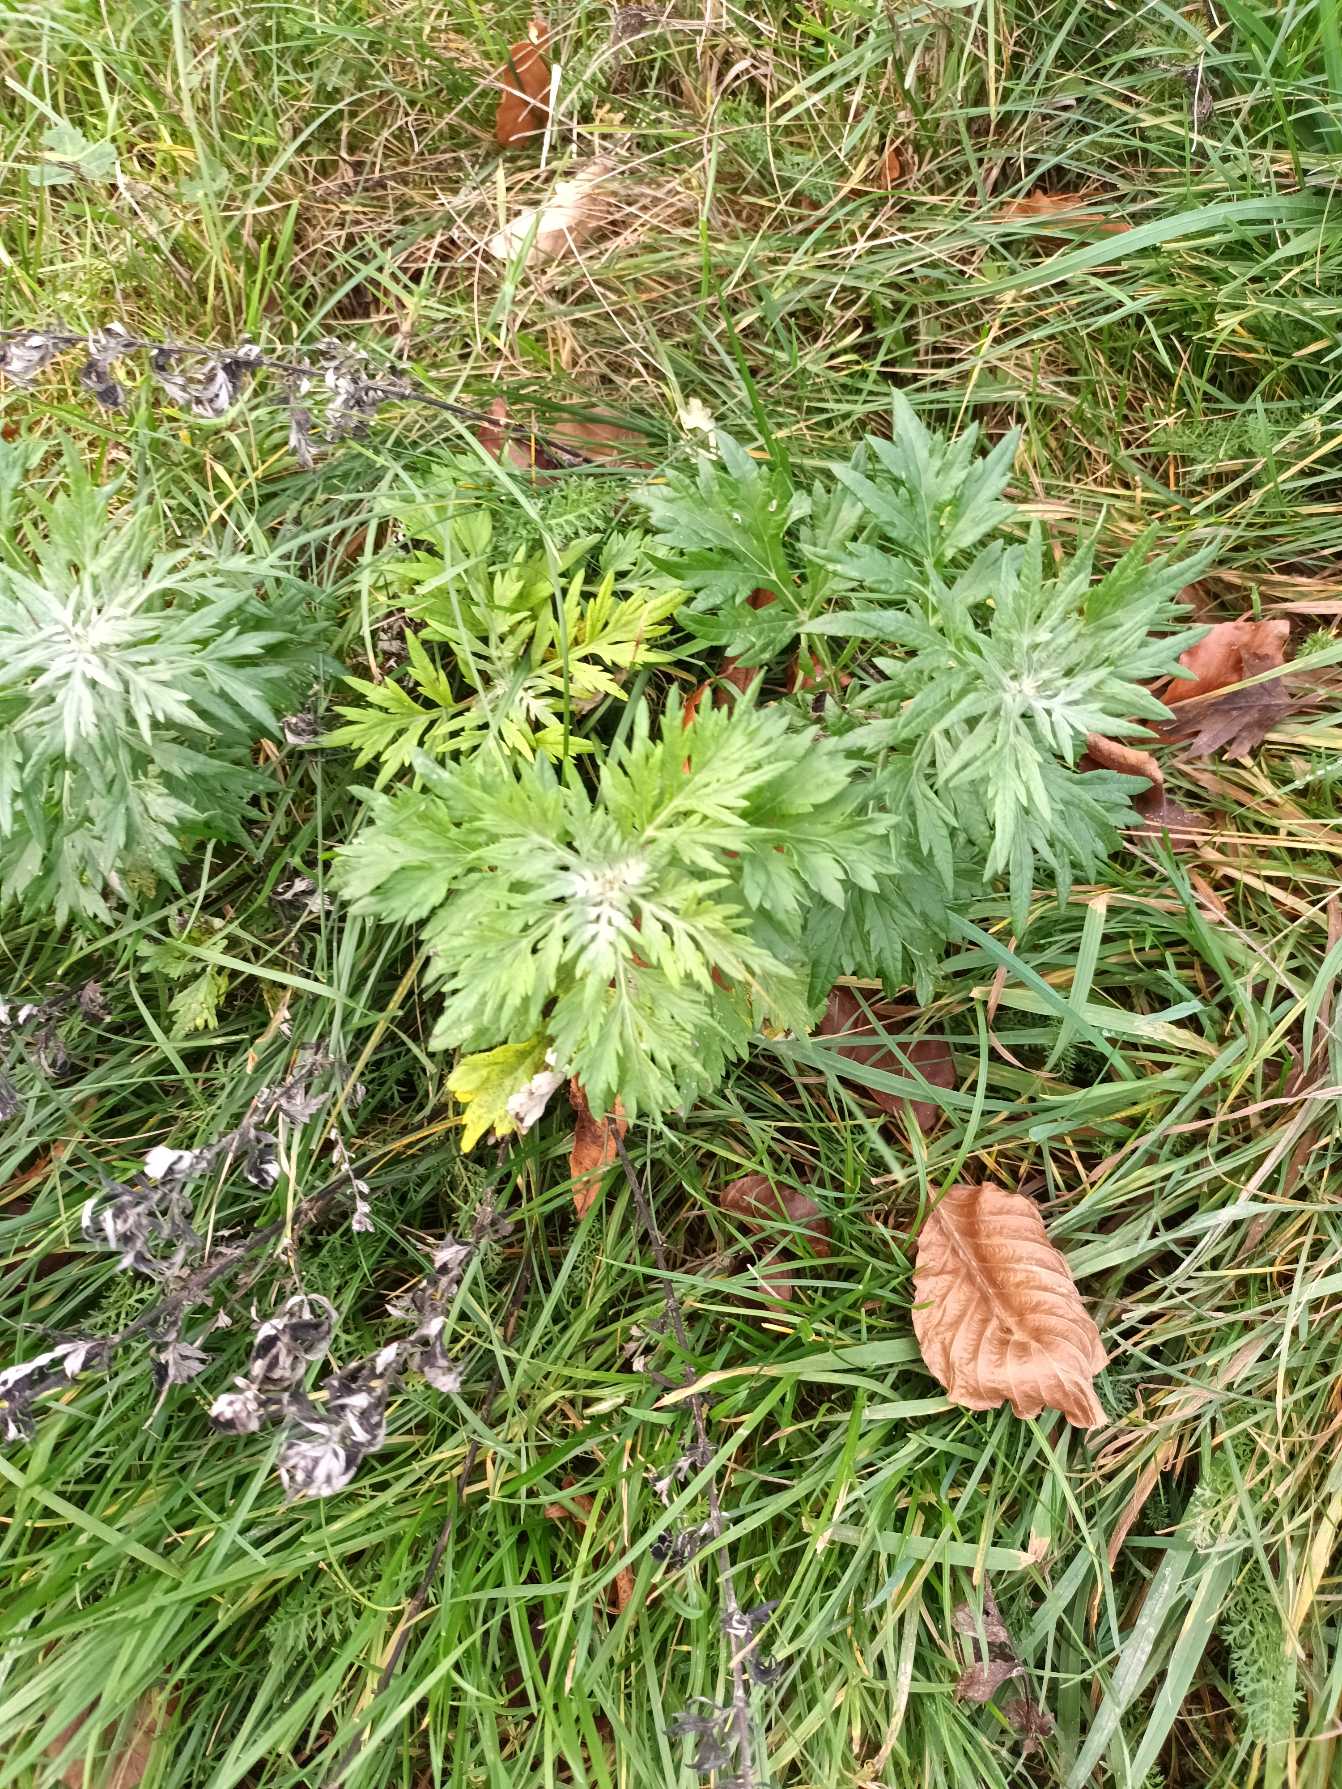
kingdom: Plantae
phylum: Tracheophyta
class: Magnoliopsida
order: Asterales
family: Asteraceae
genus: Artemisia
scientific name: Artemisia vulgaris
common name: Grå-bynke
